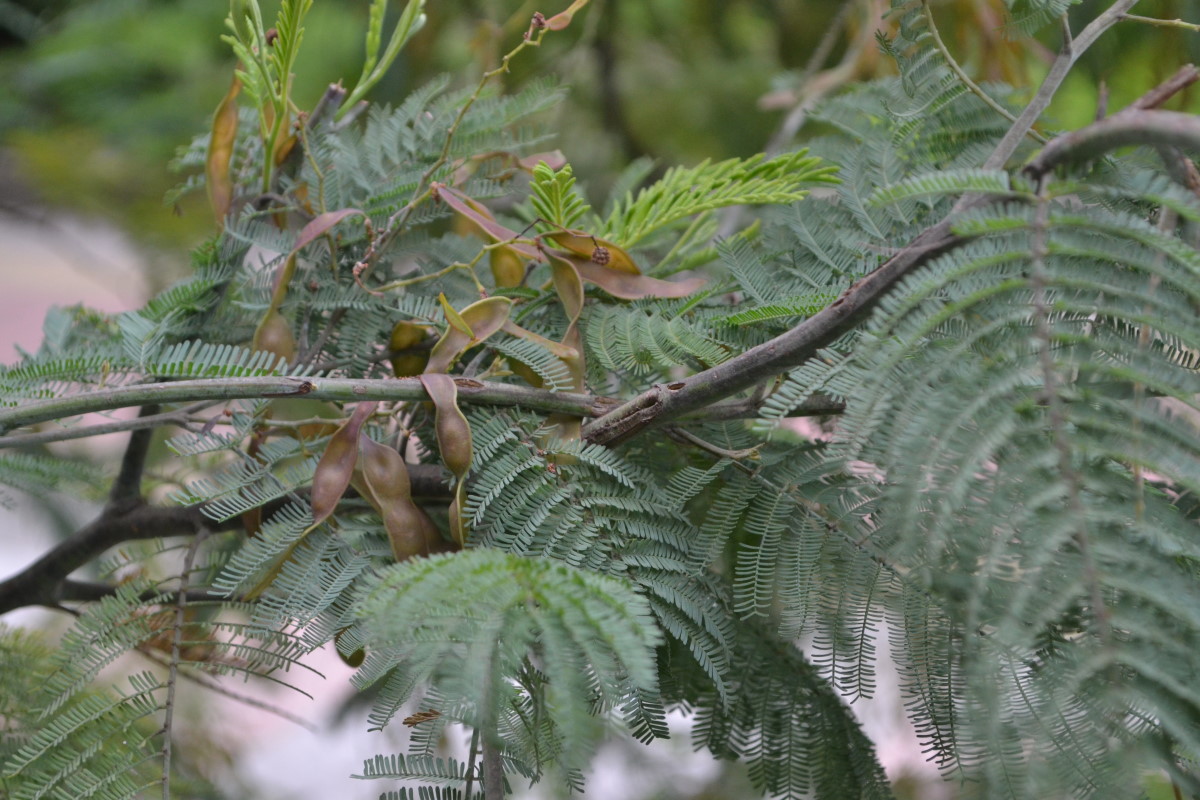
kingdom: Plantae
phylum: Tracheophyta
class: Magnoliopsida
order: Fabales
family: Fabaceae
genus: Acacia
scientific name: Acacia dealbata
